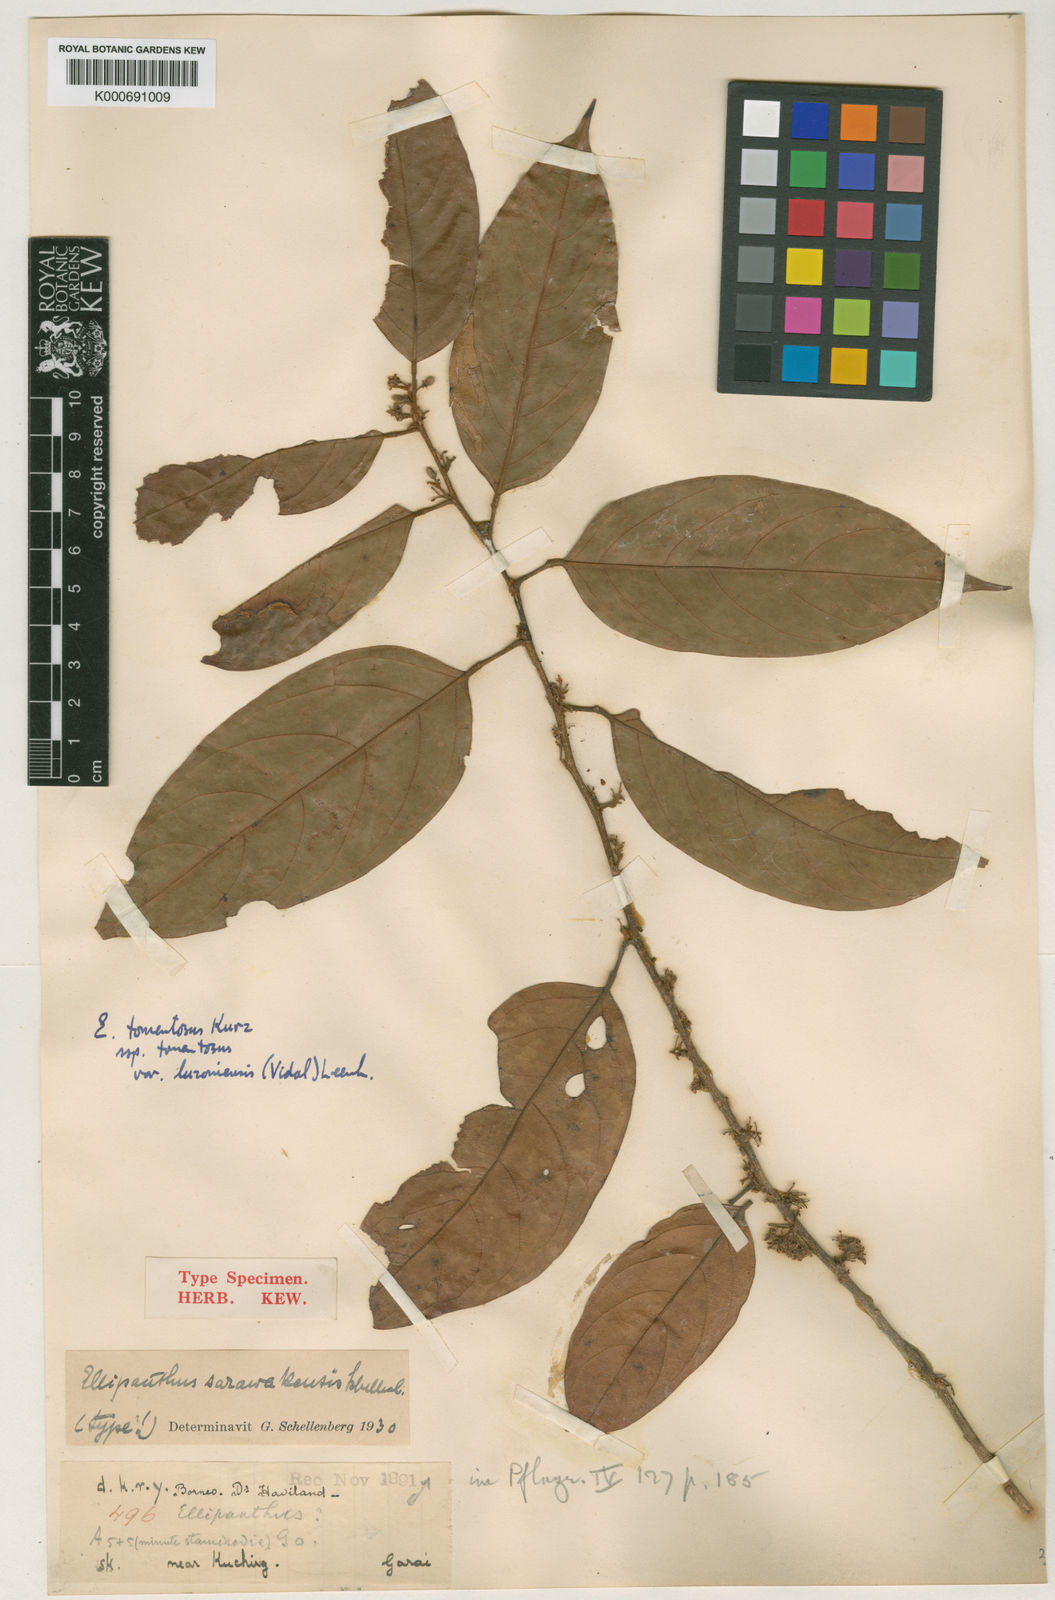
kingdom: Plantae
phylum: Tracheophyta
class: Magnoliopsida
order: Oxalidales
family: Connaraceae
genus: Ellipanthus
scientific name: Ellipanthus tomentosus
